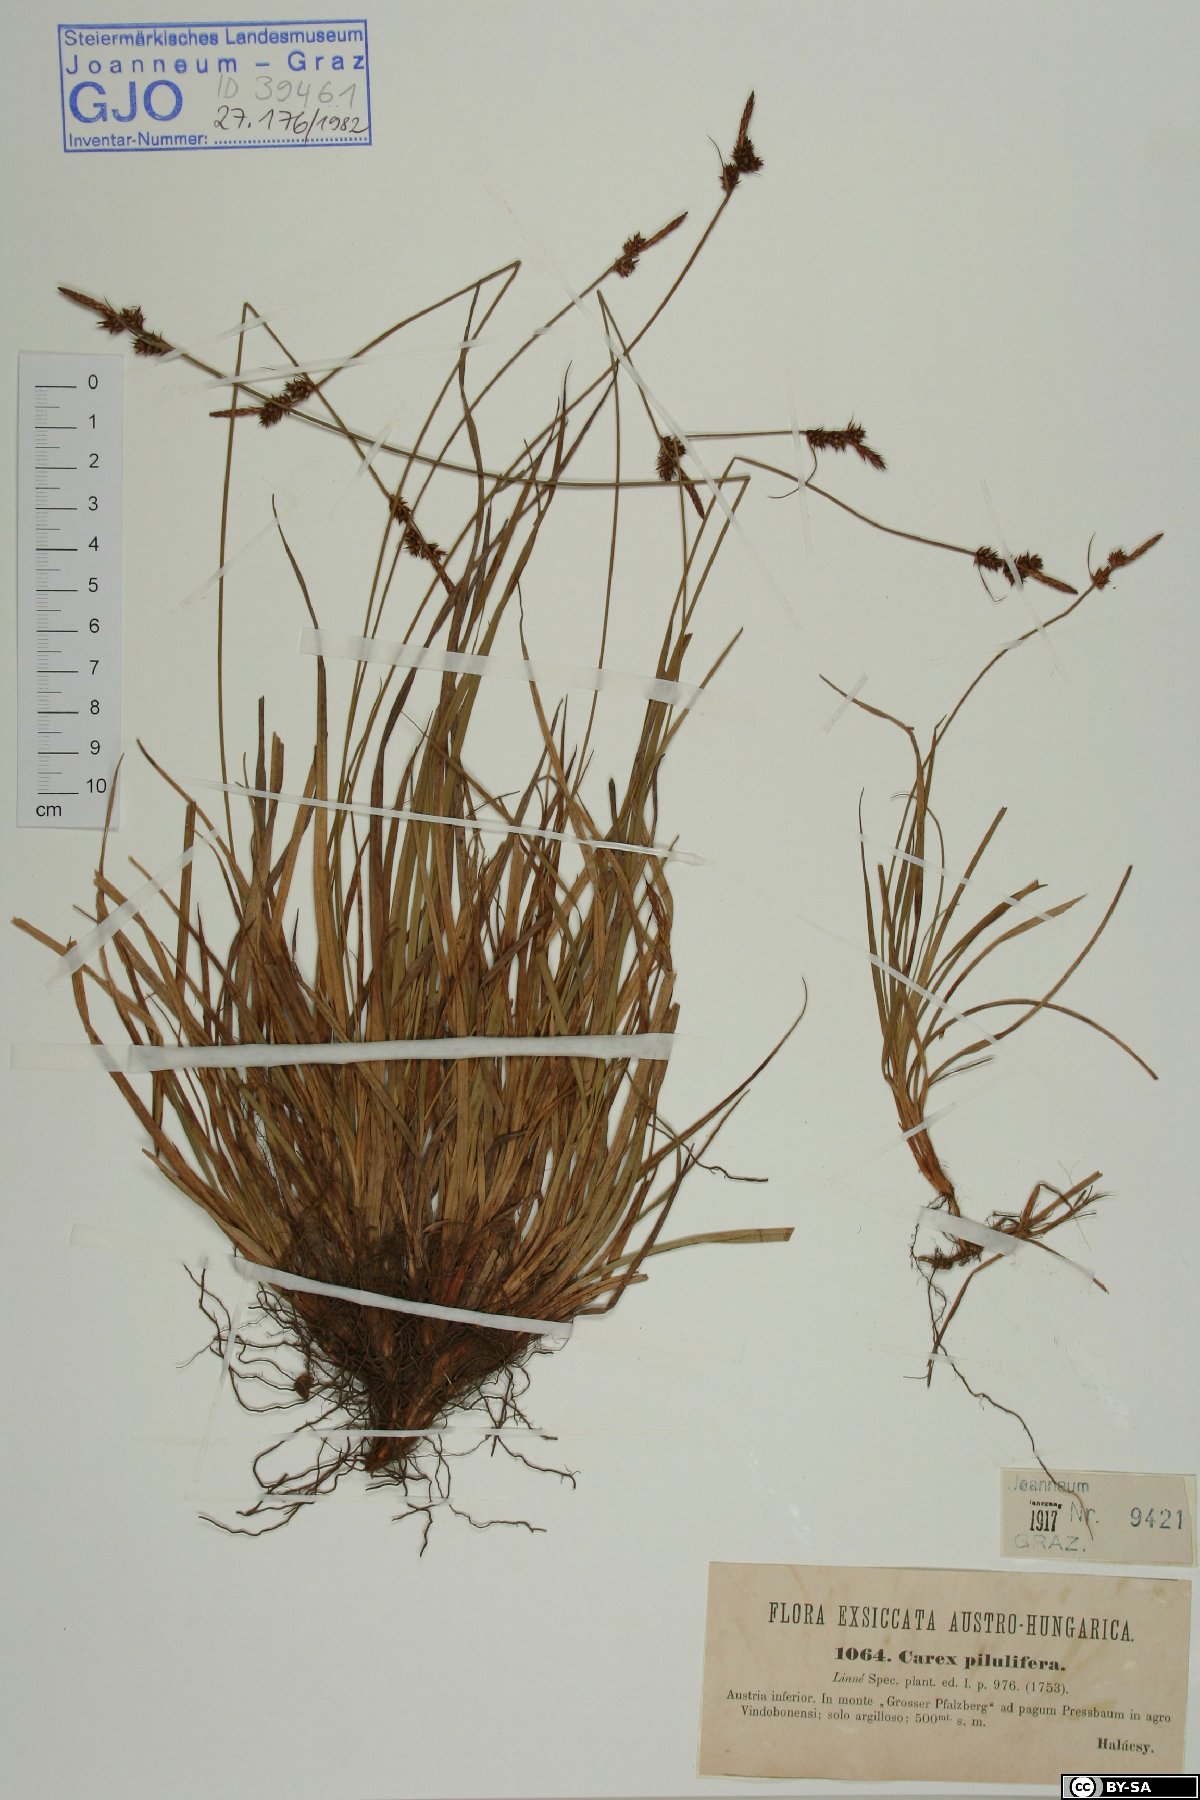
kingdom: Plantae
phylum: Tracheophyta
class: Liliopsida
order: Poales
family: Cyperaceae
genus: Carex
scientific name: Carex pilulifera
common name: Pill sedge
